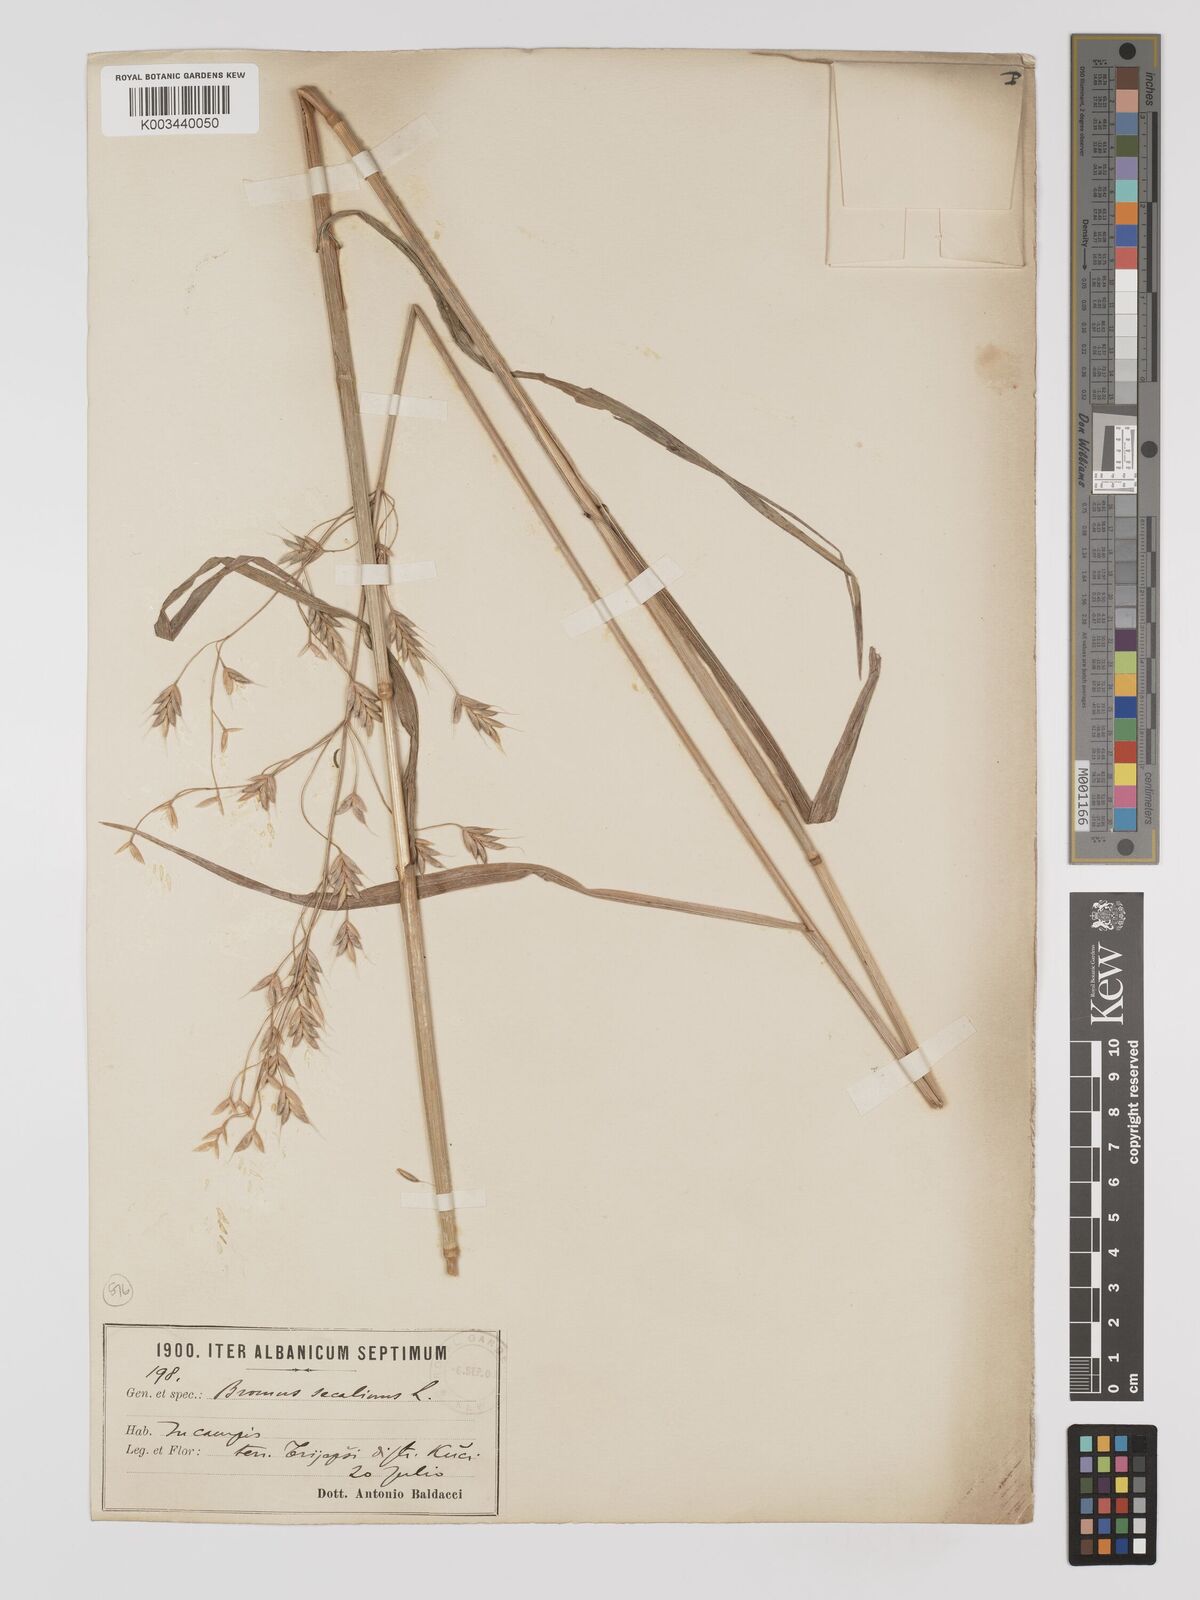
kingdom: Plantae
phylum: Tracheophyta
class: Liliopsida
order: Poales
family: Poaceae
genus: Bromus
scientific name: Bromus secalinus
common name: Rye brome
